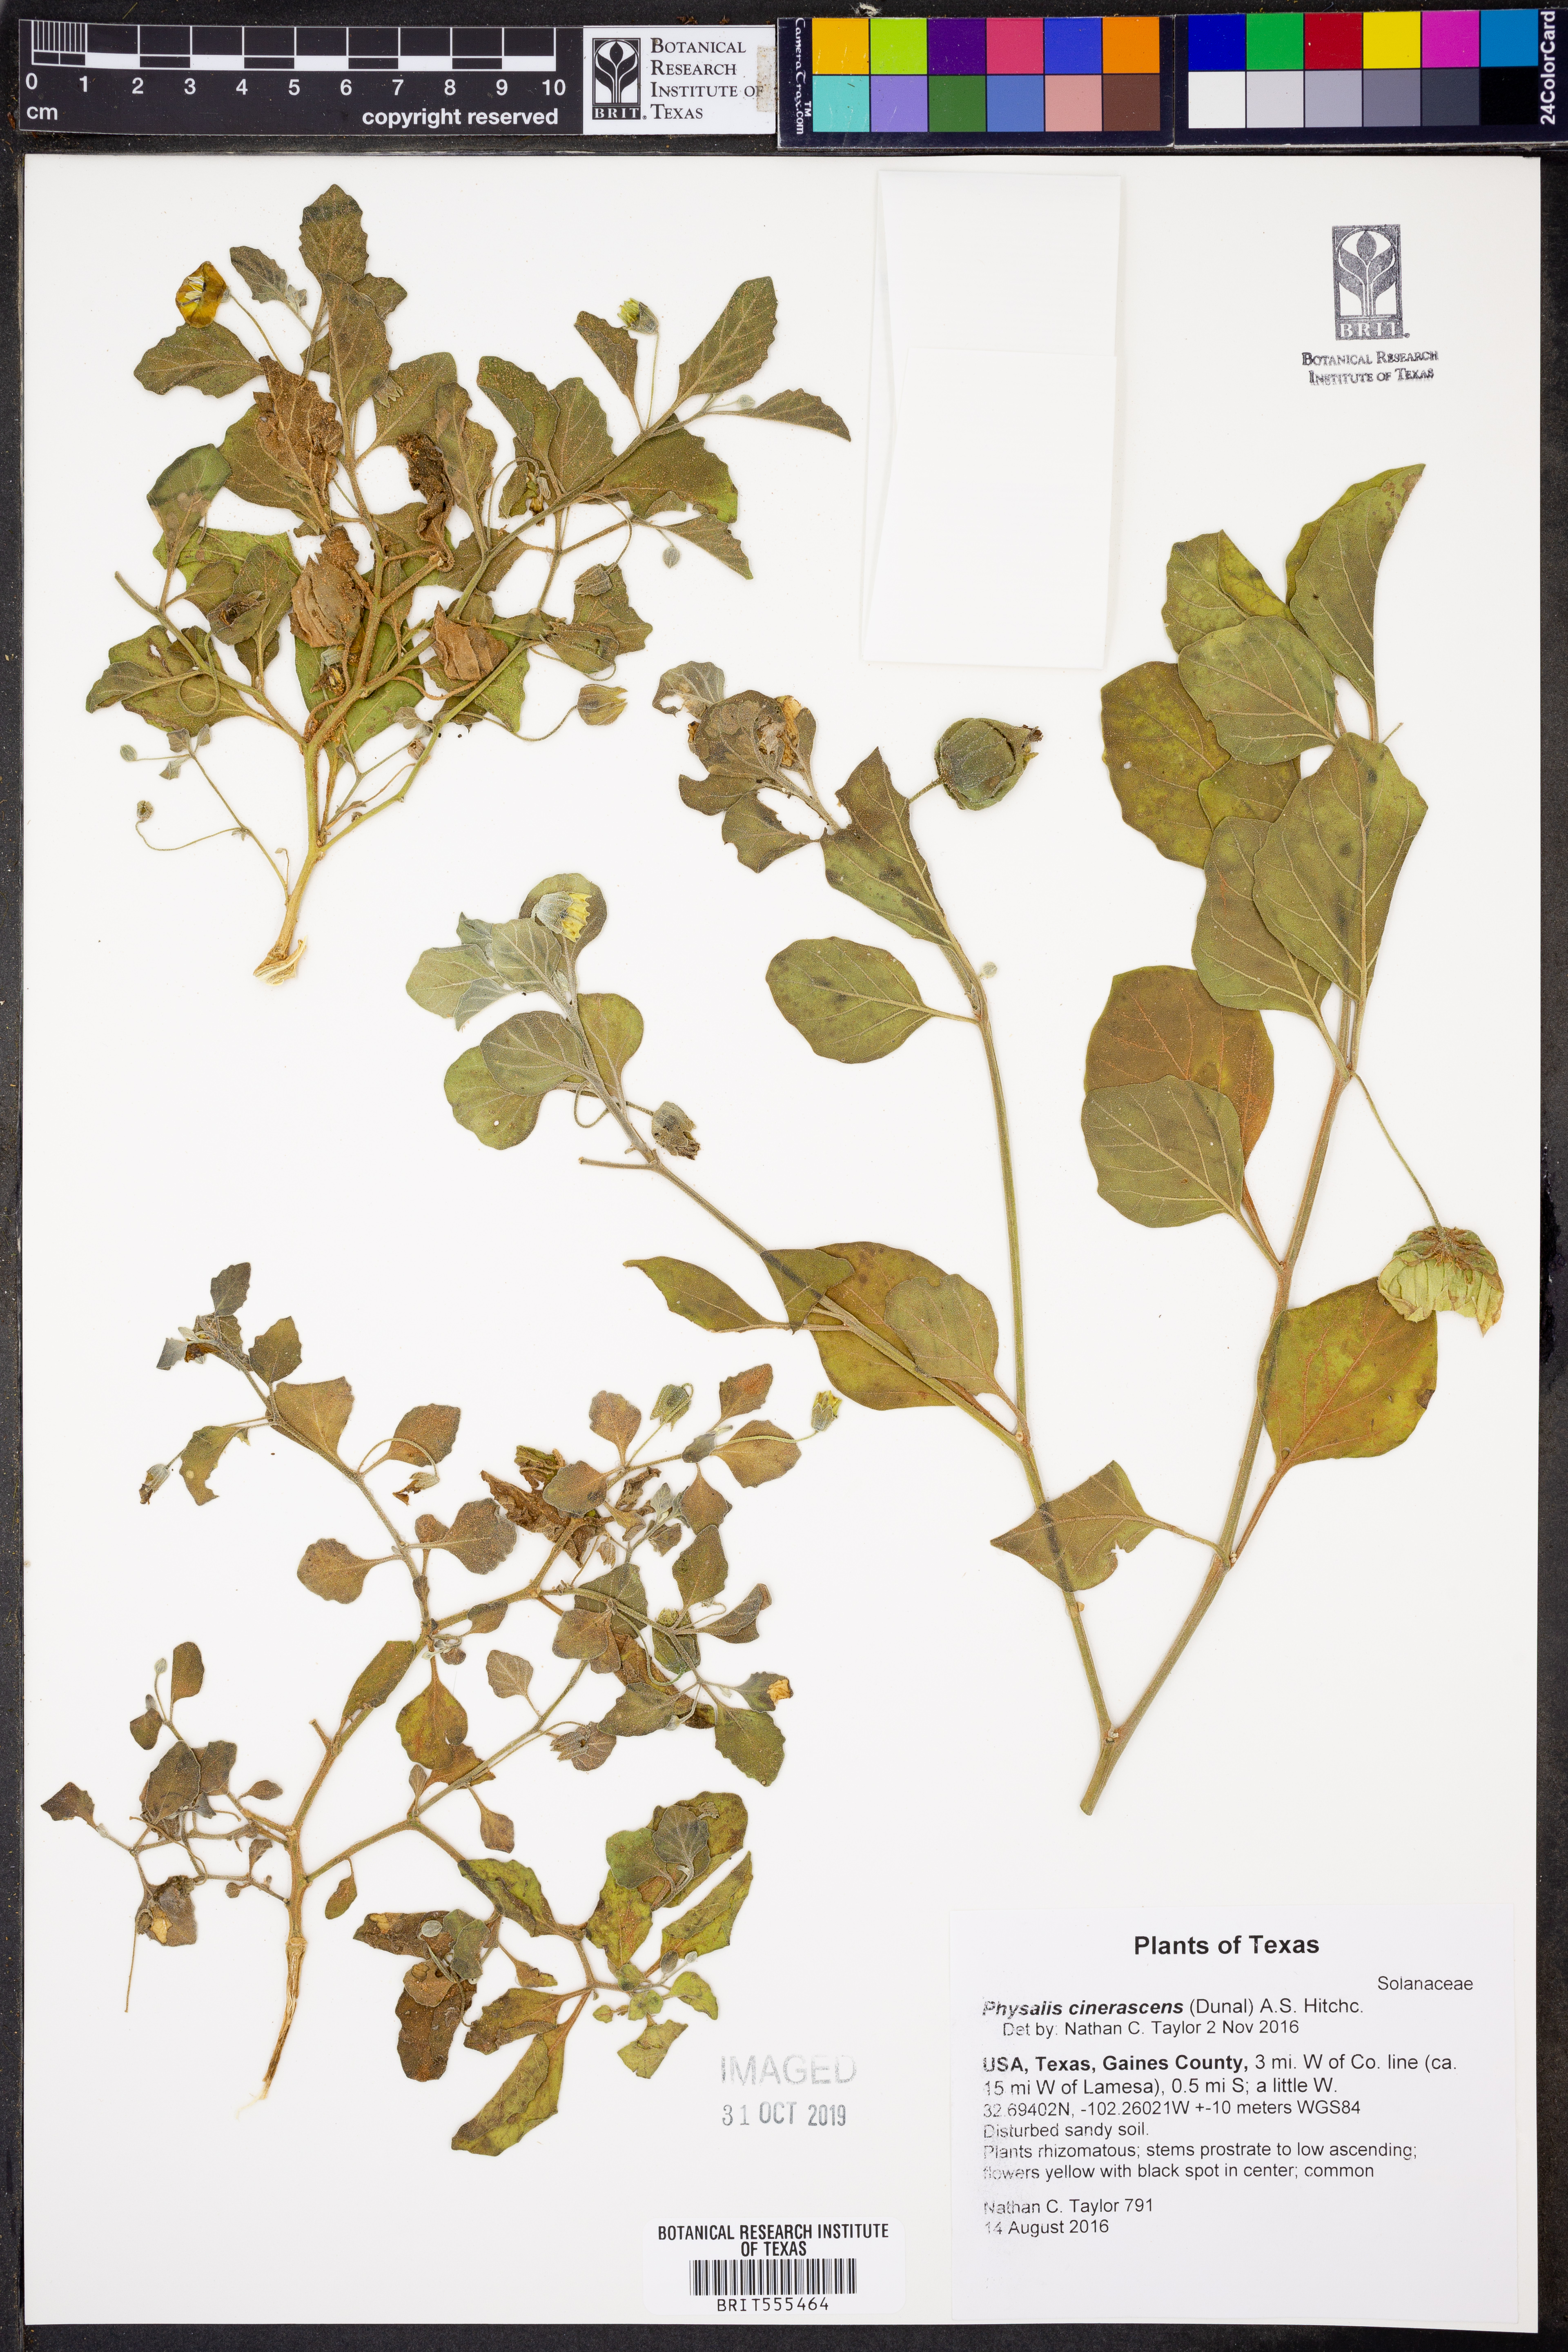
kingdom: Plantae
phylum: Tracheophyta
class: Magnoliopsida
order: Solanales
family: Solanaceae
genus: Physalis
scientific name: Physalis cinerascens
